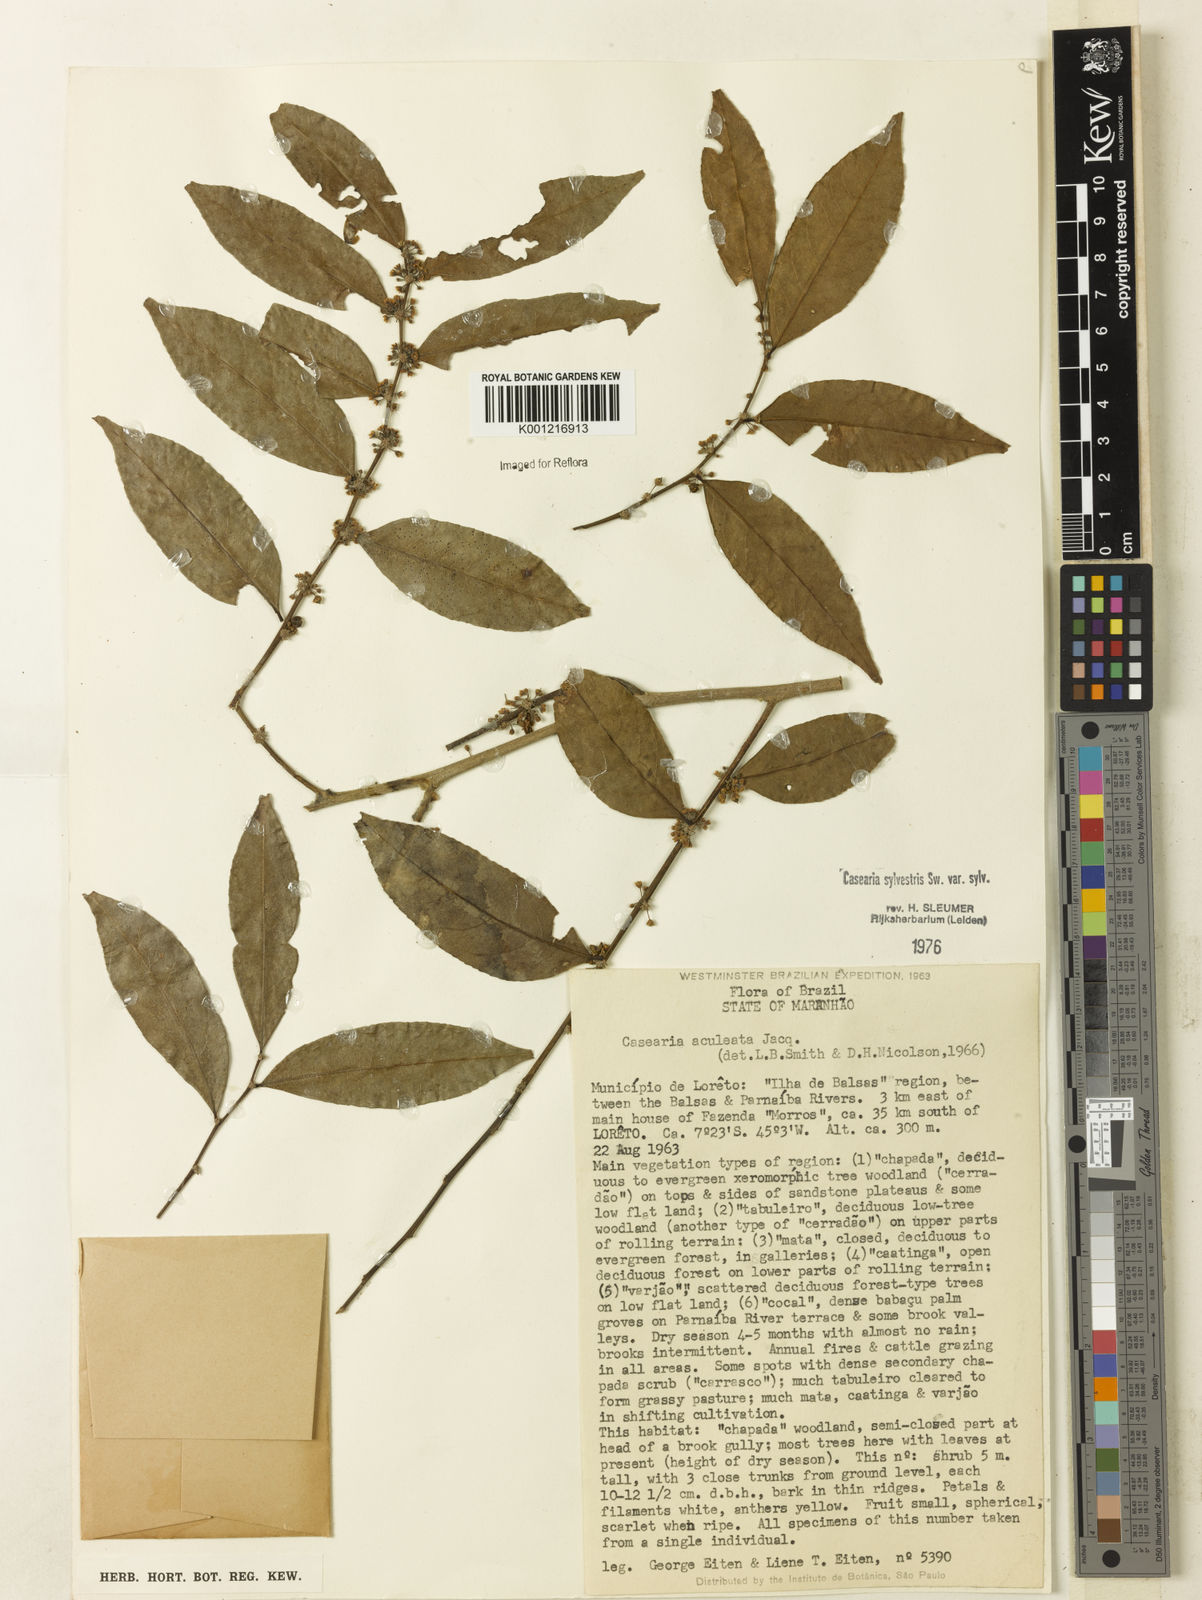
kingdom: Plantae
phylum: Tracheophyta
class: Magnoliopsida
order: Malpighiales
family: Salicaceae
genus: Casearia
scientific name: Casearia sylvestris
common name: Wild sage
